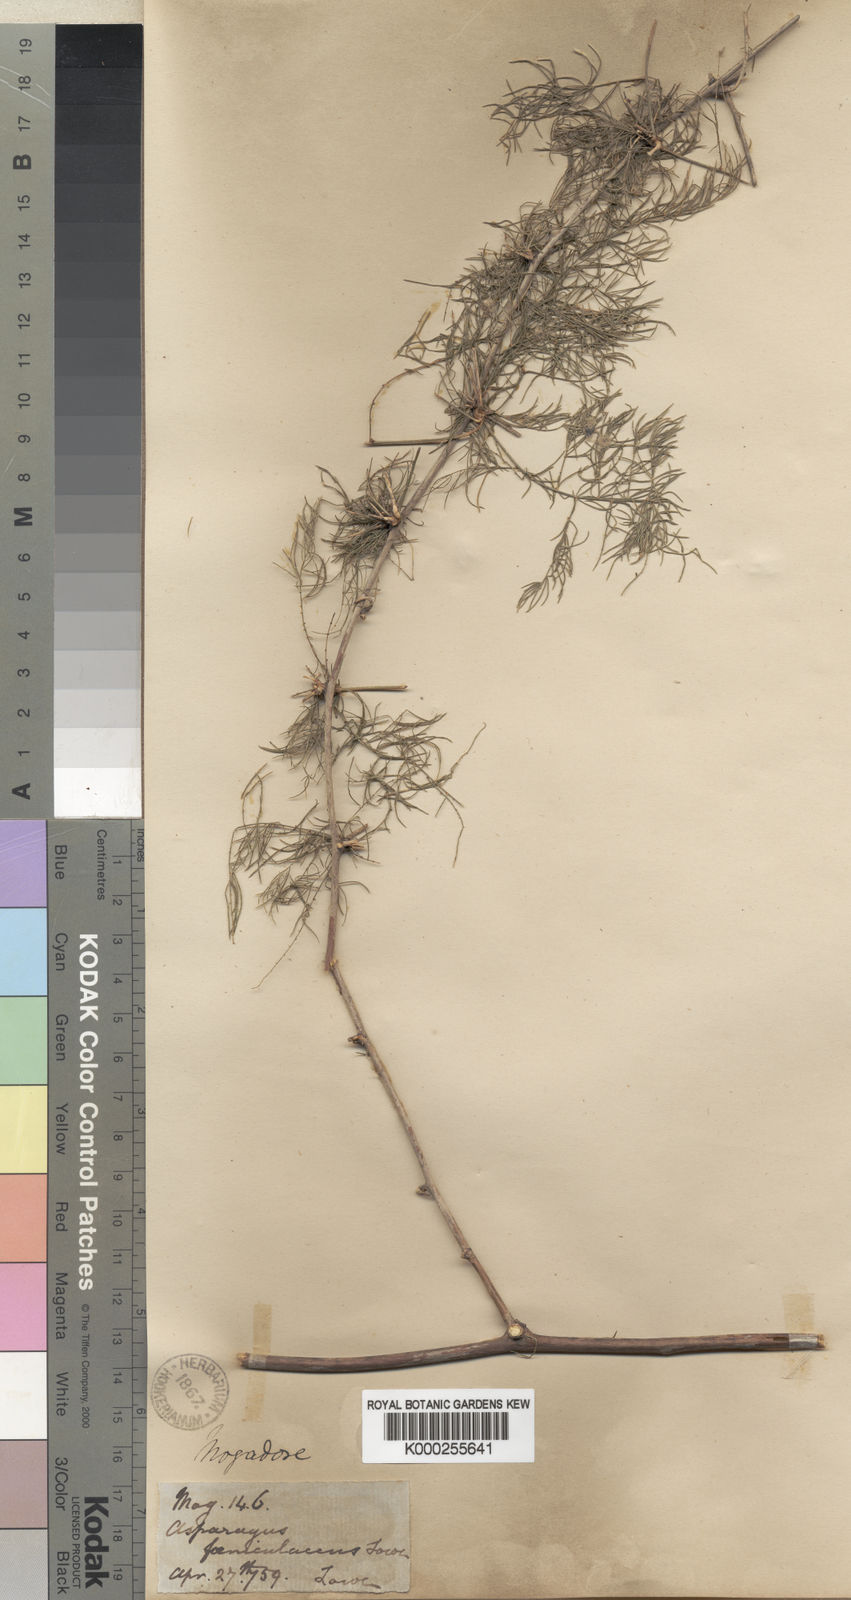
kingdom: Plantae
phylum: Tracheophyta
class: Liliopsida
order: Asparagales
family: Asparagaceae
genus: Asparagus
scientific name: Asparagus altissimus
